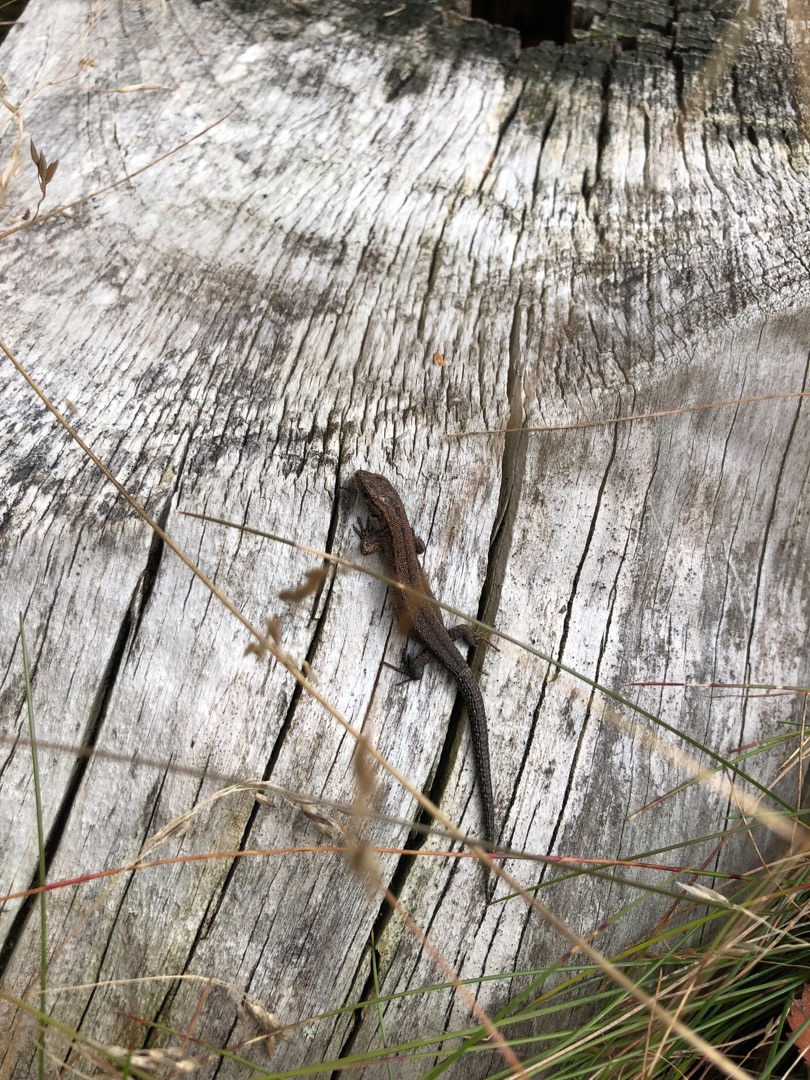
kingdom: Animalia
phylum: Chordata
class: Squamata
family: Lacertidae
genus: Zootoca
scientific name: Zootoca vivipara
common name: Skovfirben
